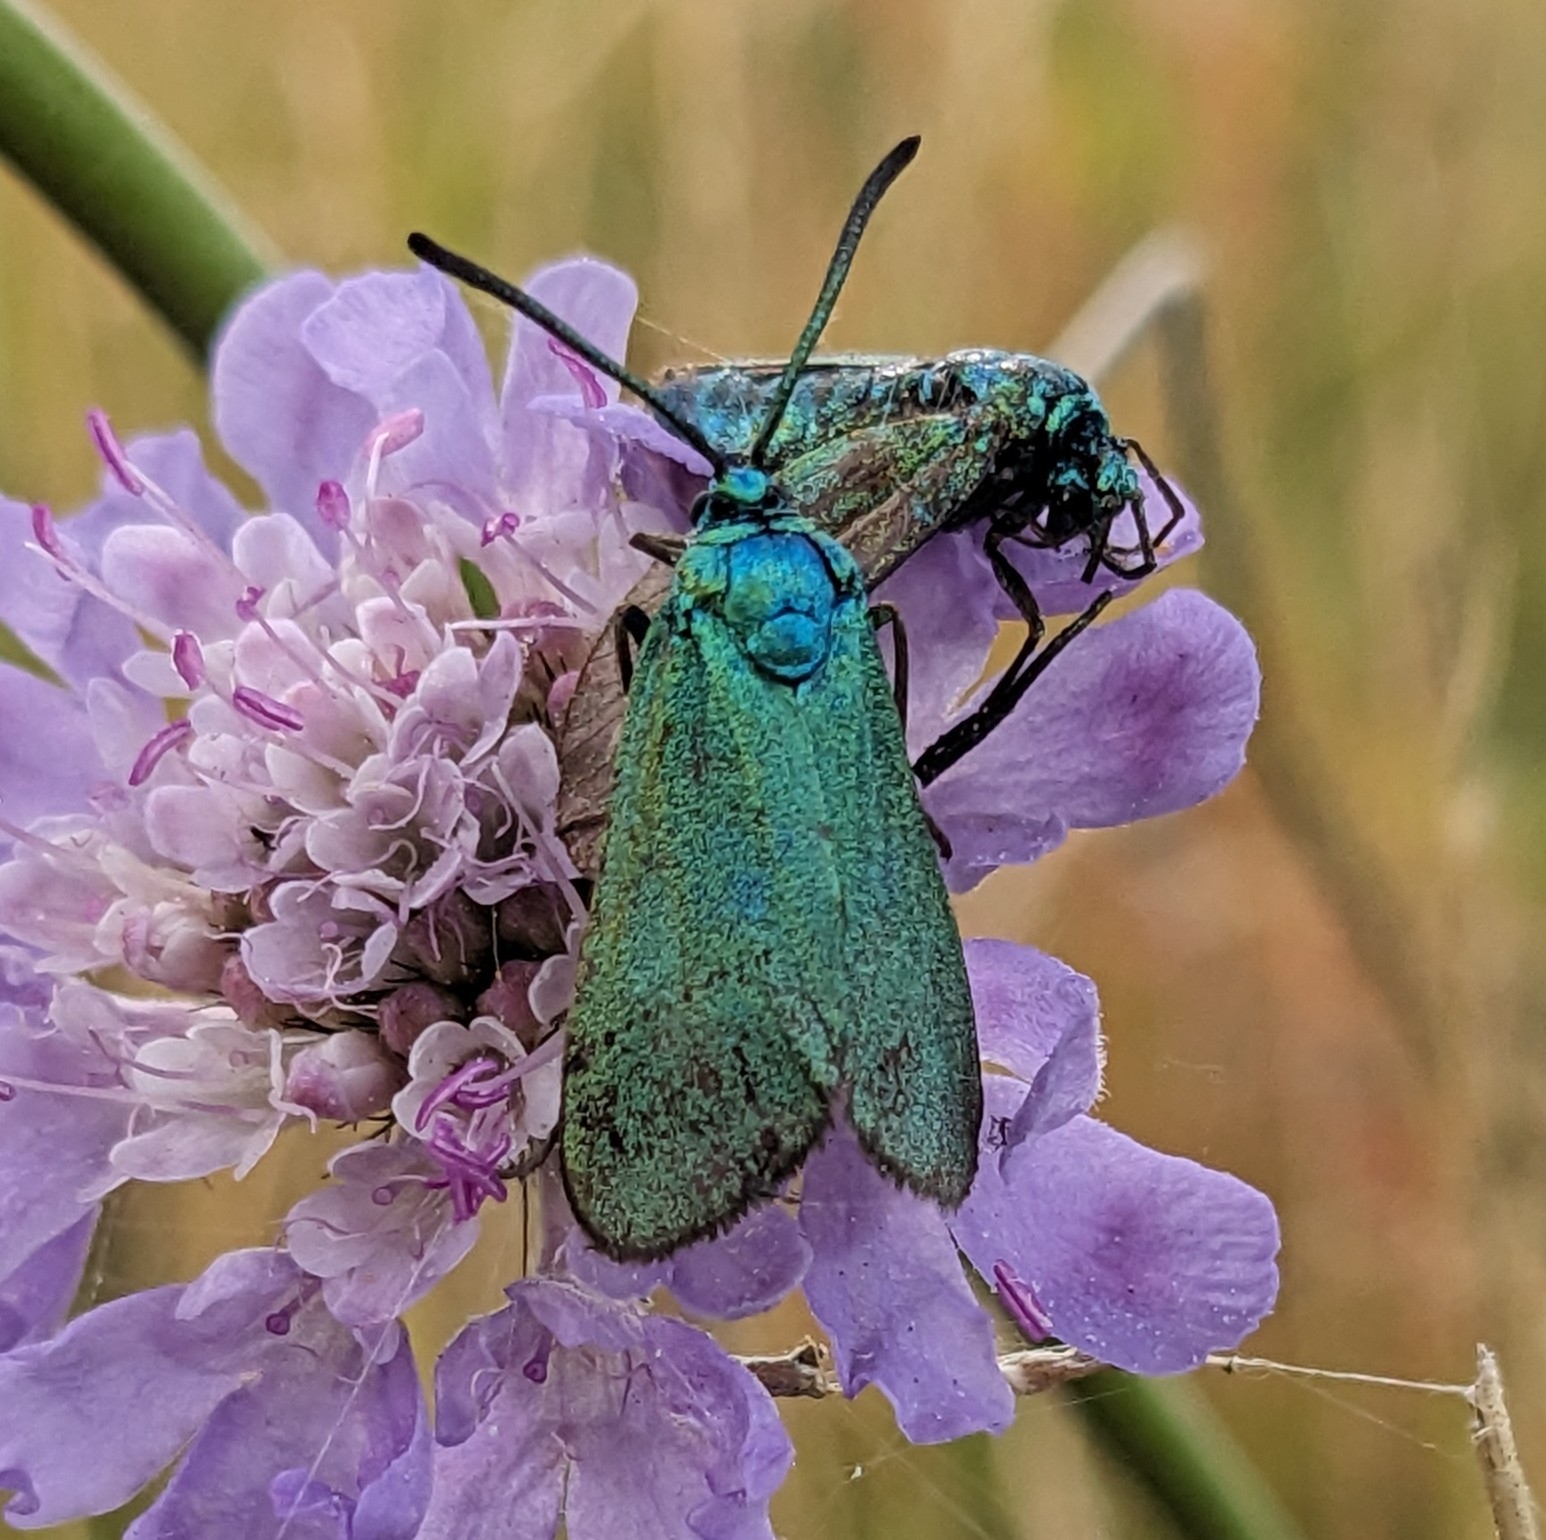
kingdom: Animalia
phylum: Arthropoda
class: Insecta
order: Lepidoptera
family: Zygaenidae
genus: Adscita
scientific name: Adscita statices
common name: Metalvinge
